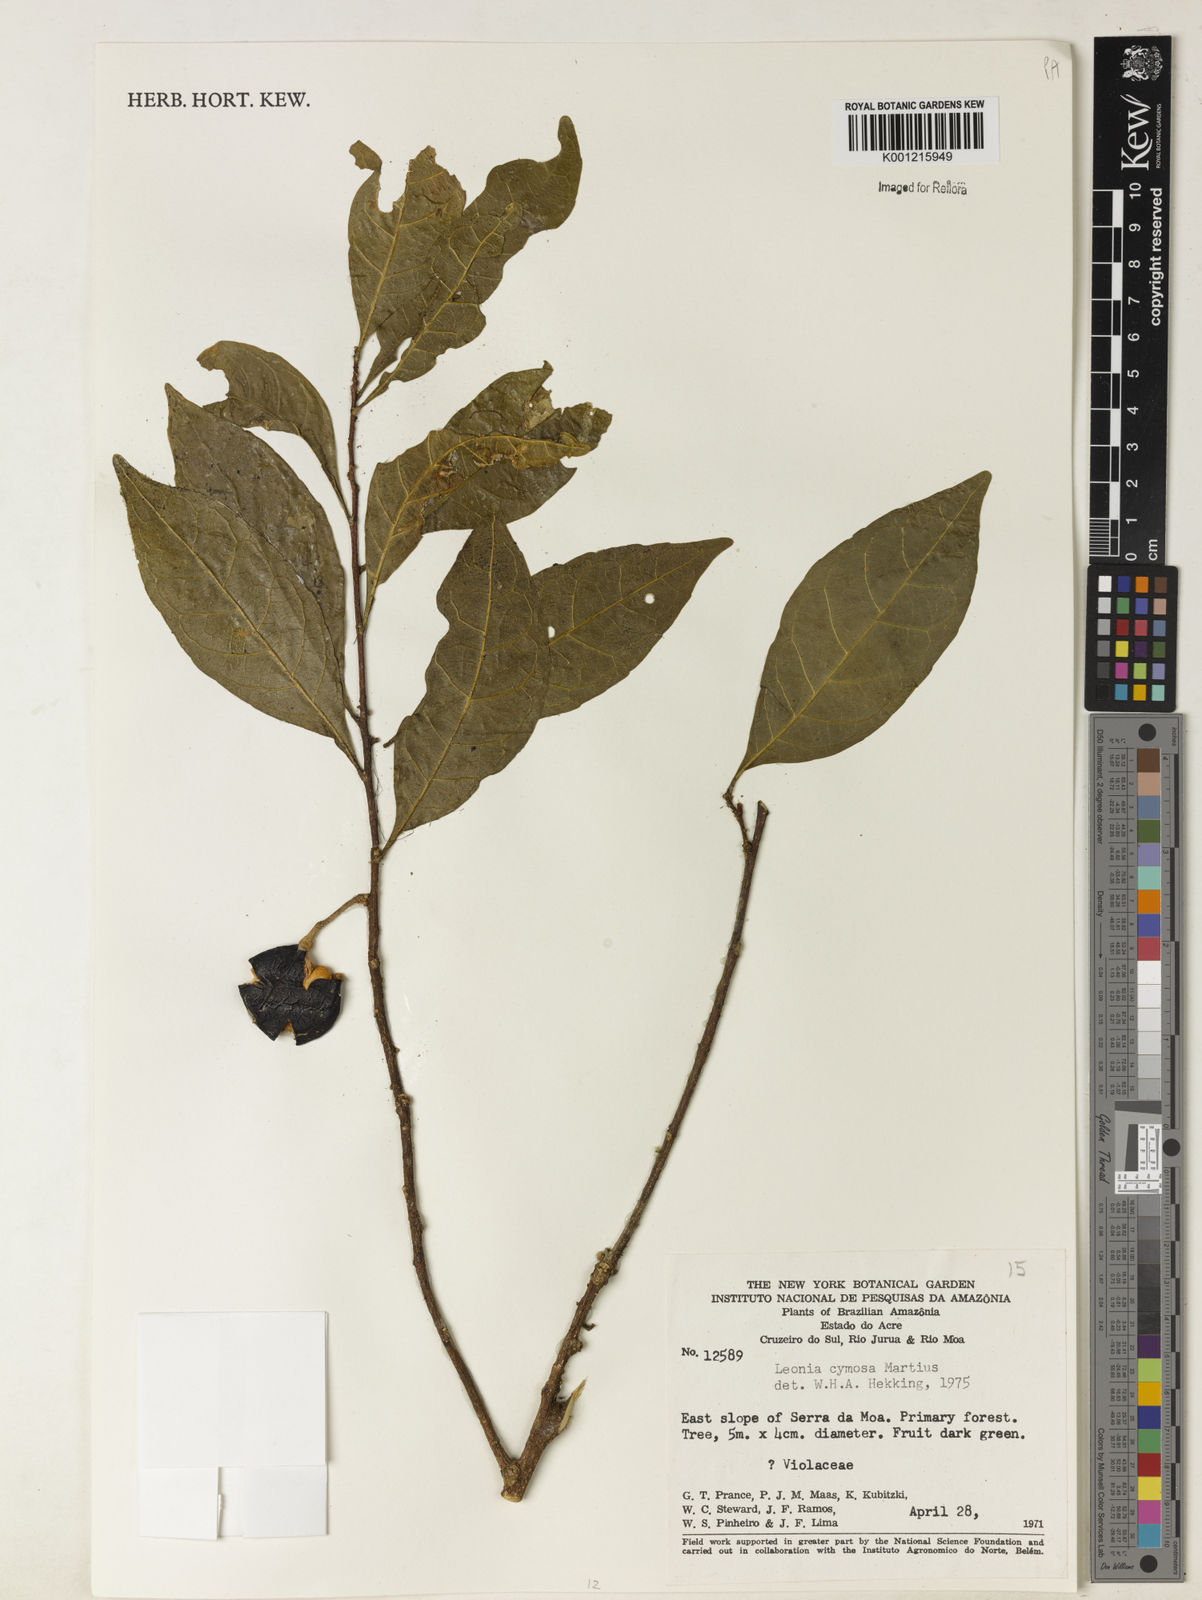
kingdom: Plantae
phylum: Tracheophyta
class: Magnoliopsida
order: Malpighiales
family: Violaceae
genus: Leonia
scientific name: Leonia cymosa
